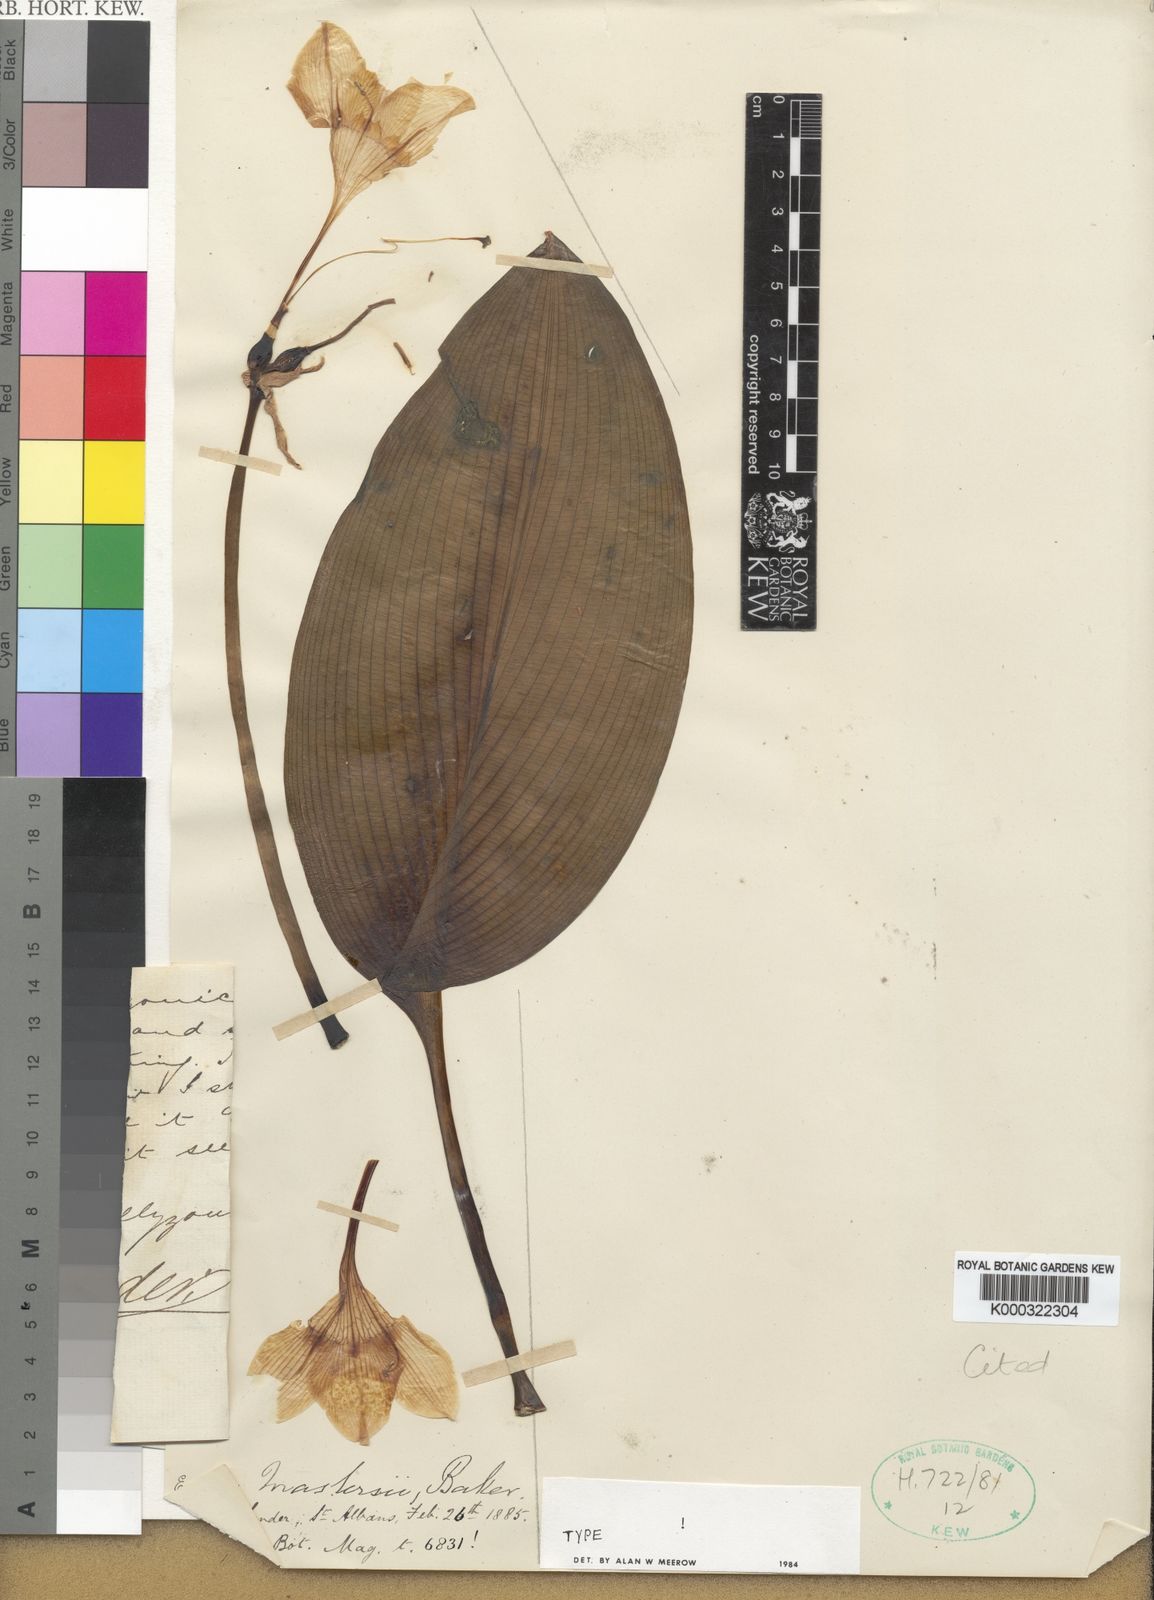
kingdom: Plantae
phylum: Tracheophyta
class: Liliopsida
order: Asparagales
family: Amaryllidaceae
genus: Urceolina
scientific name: Urceolina grandiflora
